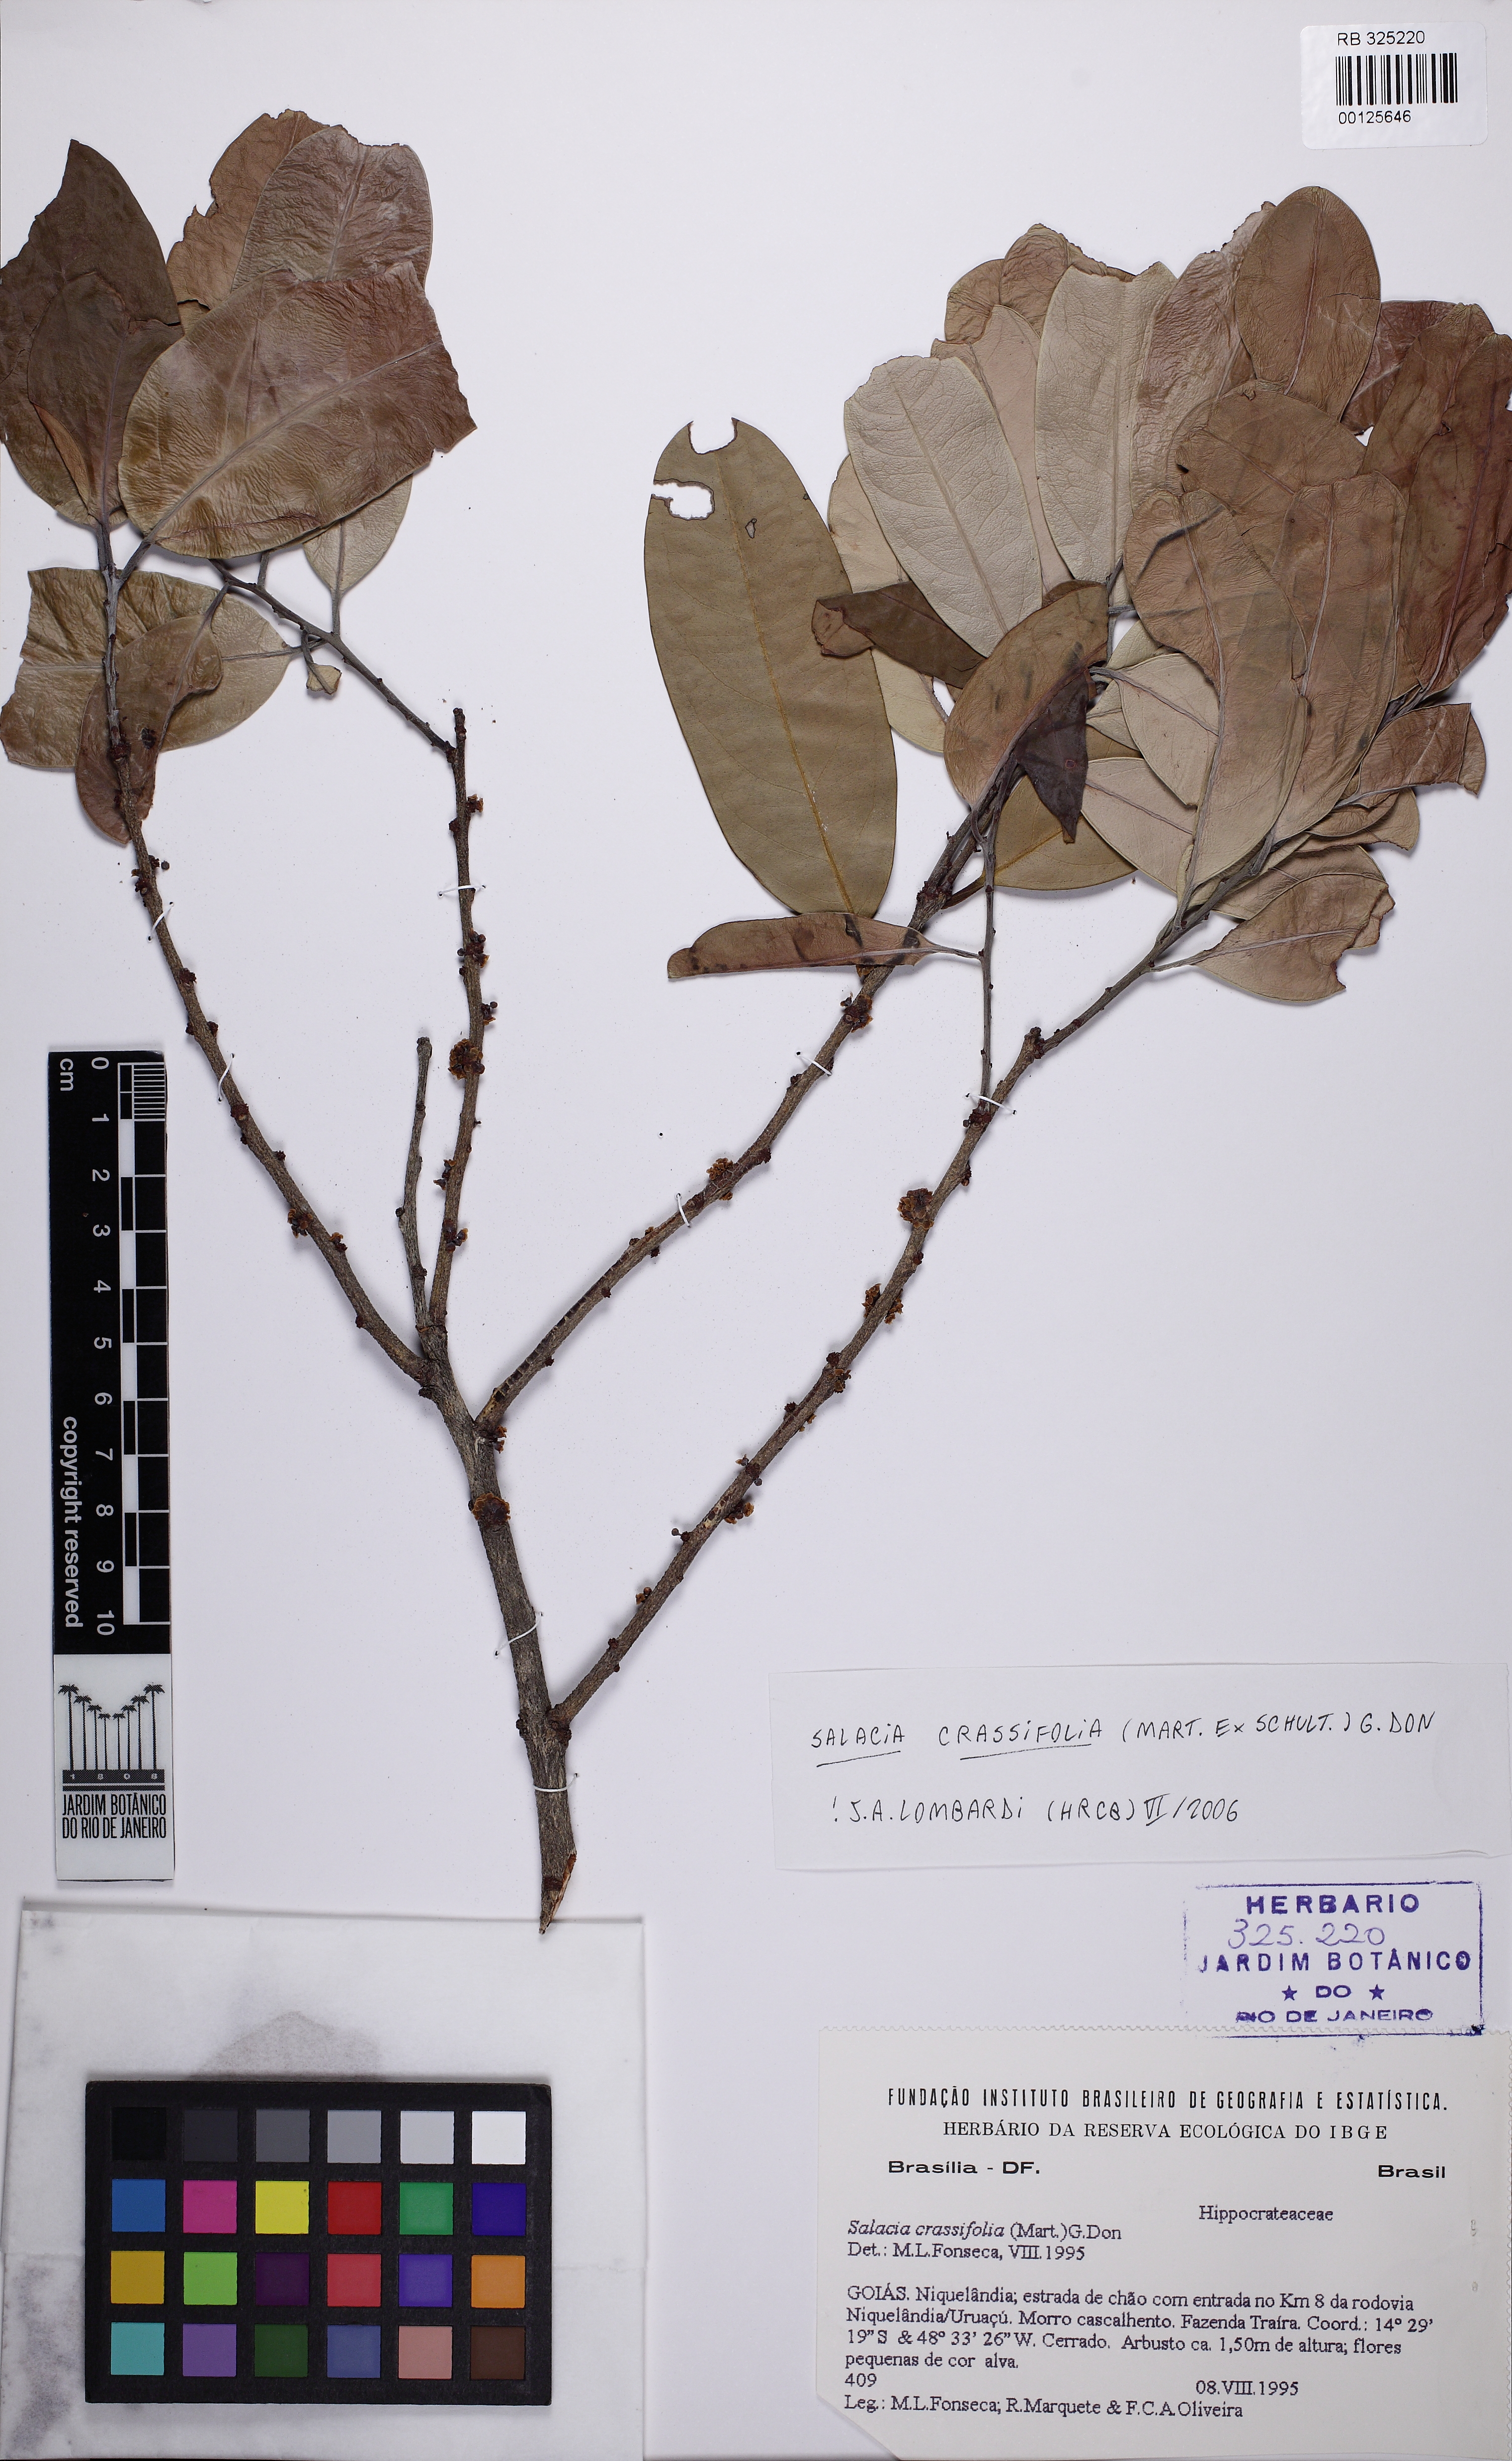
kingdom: Plantae
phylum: Tracheophyta
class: Magnoliopsida
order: Celastrales
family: Celastraceae
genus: Salacia
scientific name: Salacia grandifolia
